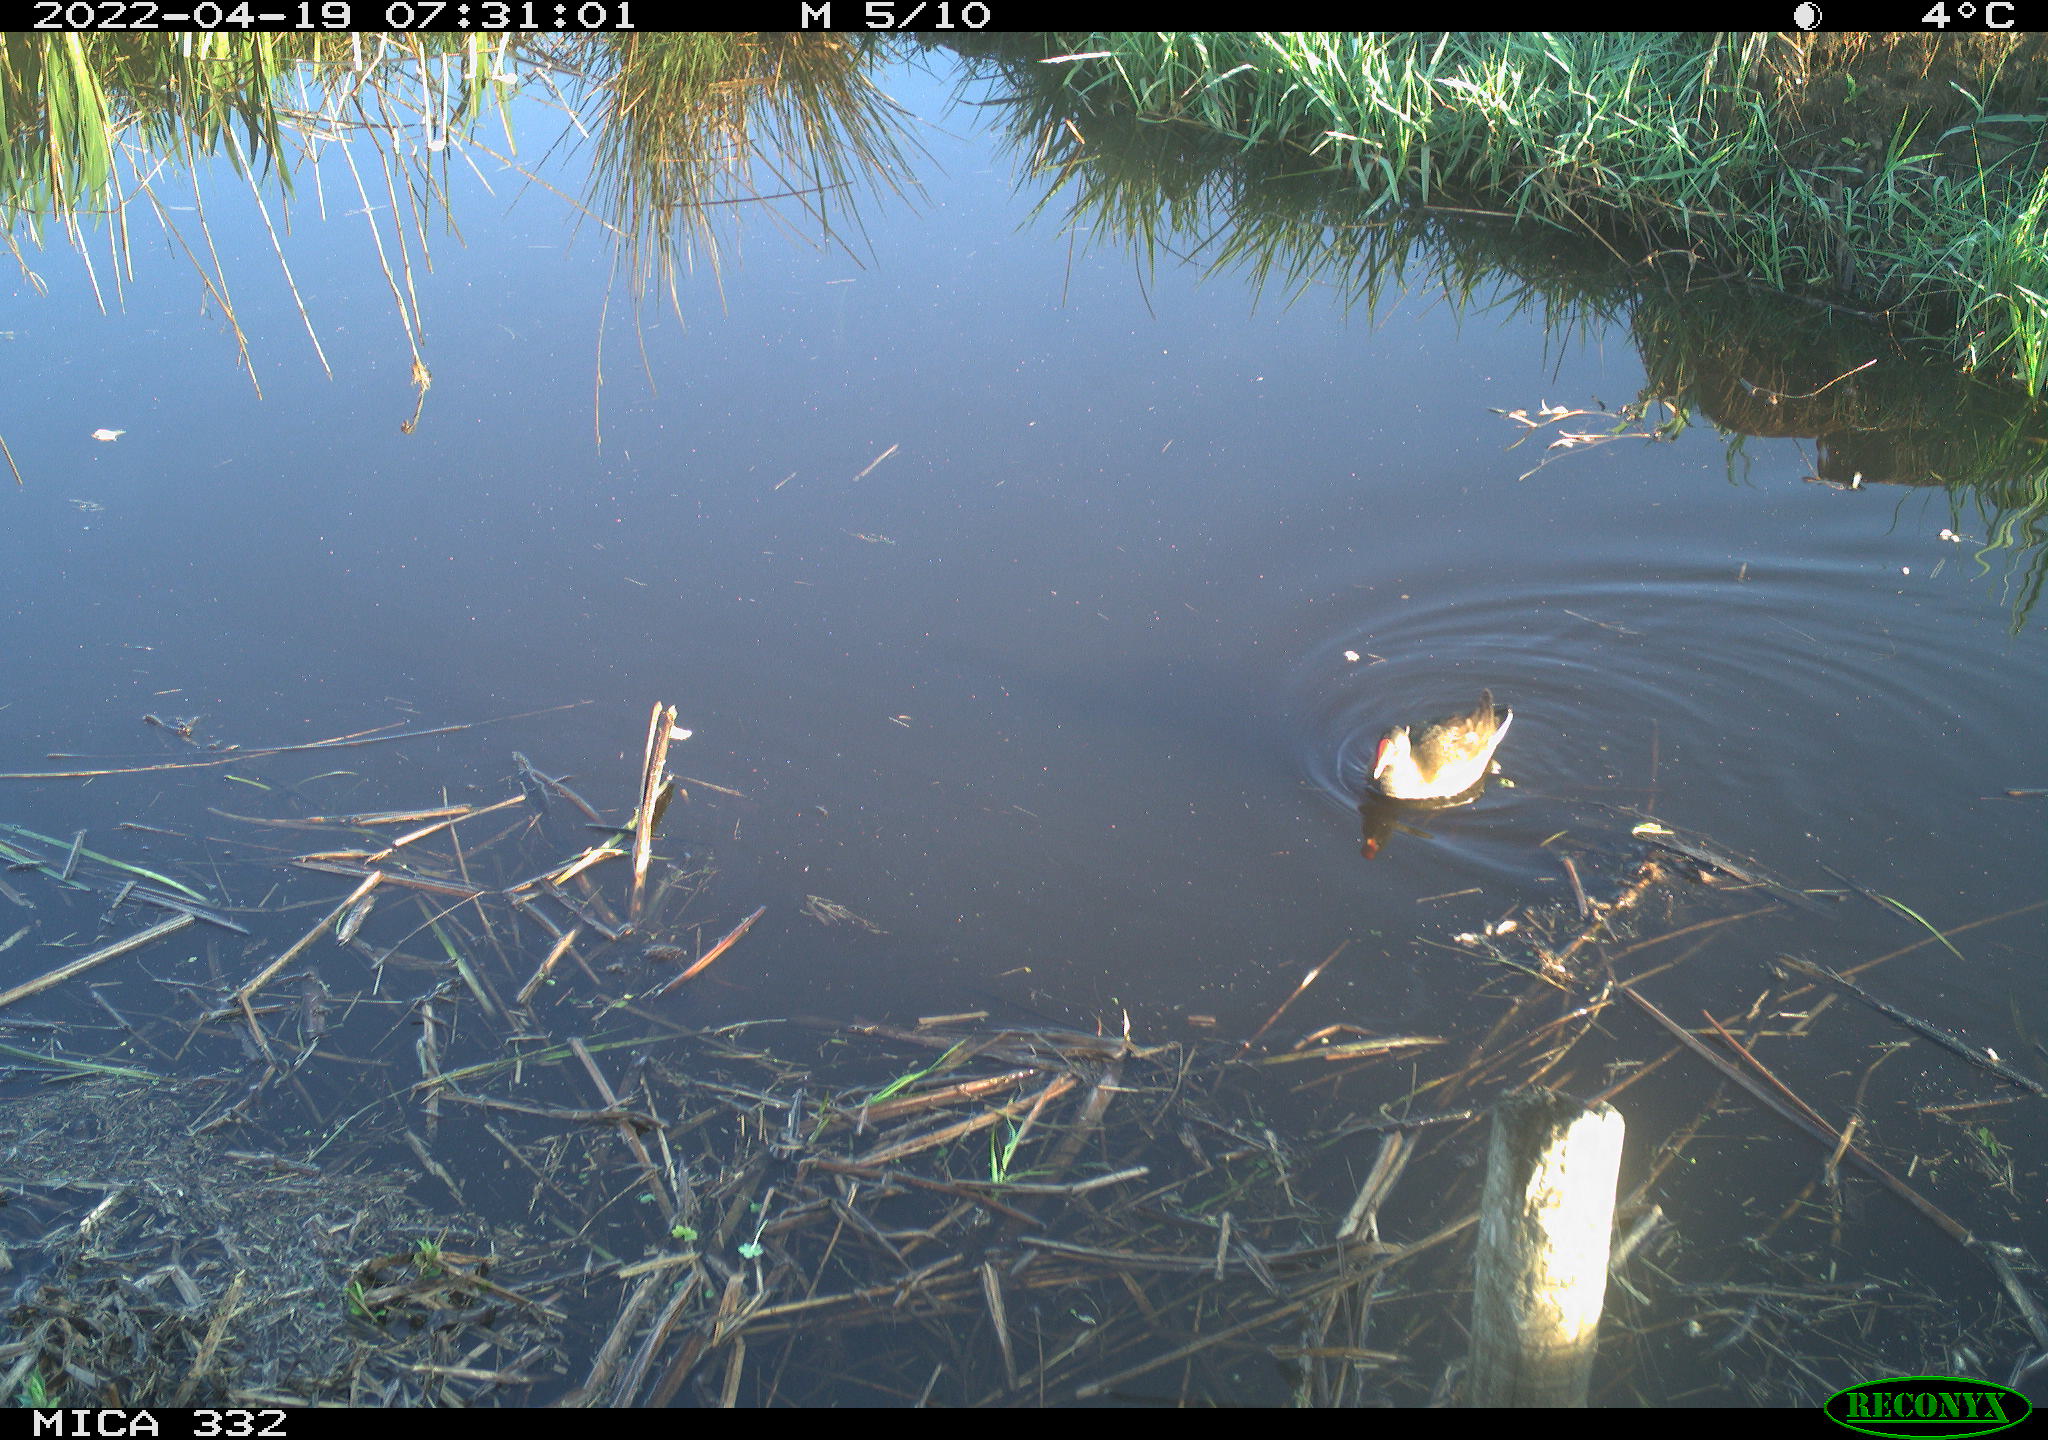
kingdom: Animalia
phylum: Chordata
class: Aves
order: Gruiformes
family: Rallidae
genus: Gallinula
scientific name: Gallinula chloropus
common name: Common moorhen
